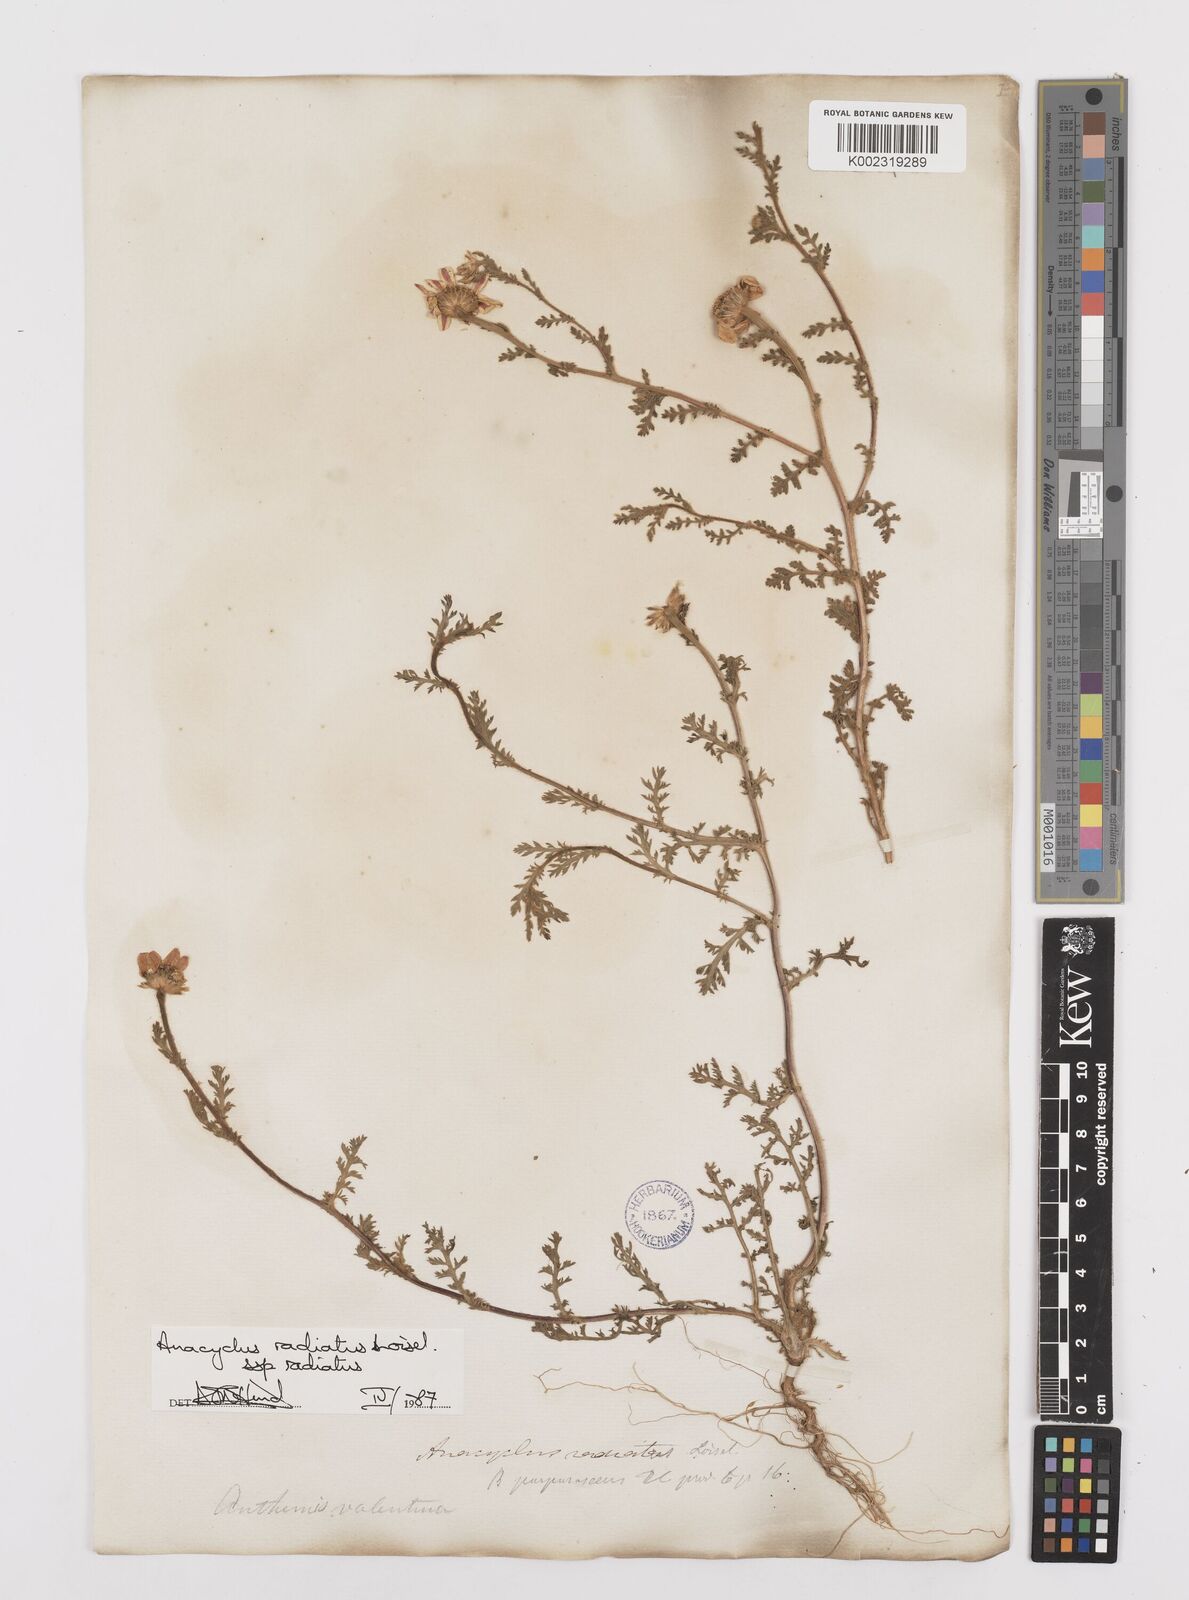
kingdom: Plantae
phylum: Tracheophyta
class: Magnoliopsida
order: Asterales
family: Asteraceae
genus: Anacyclus
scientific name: Anacyclus radiatus
